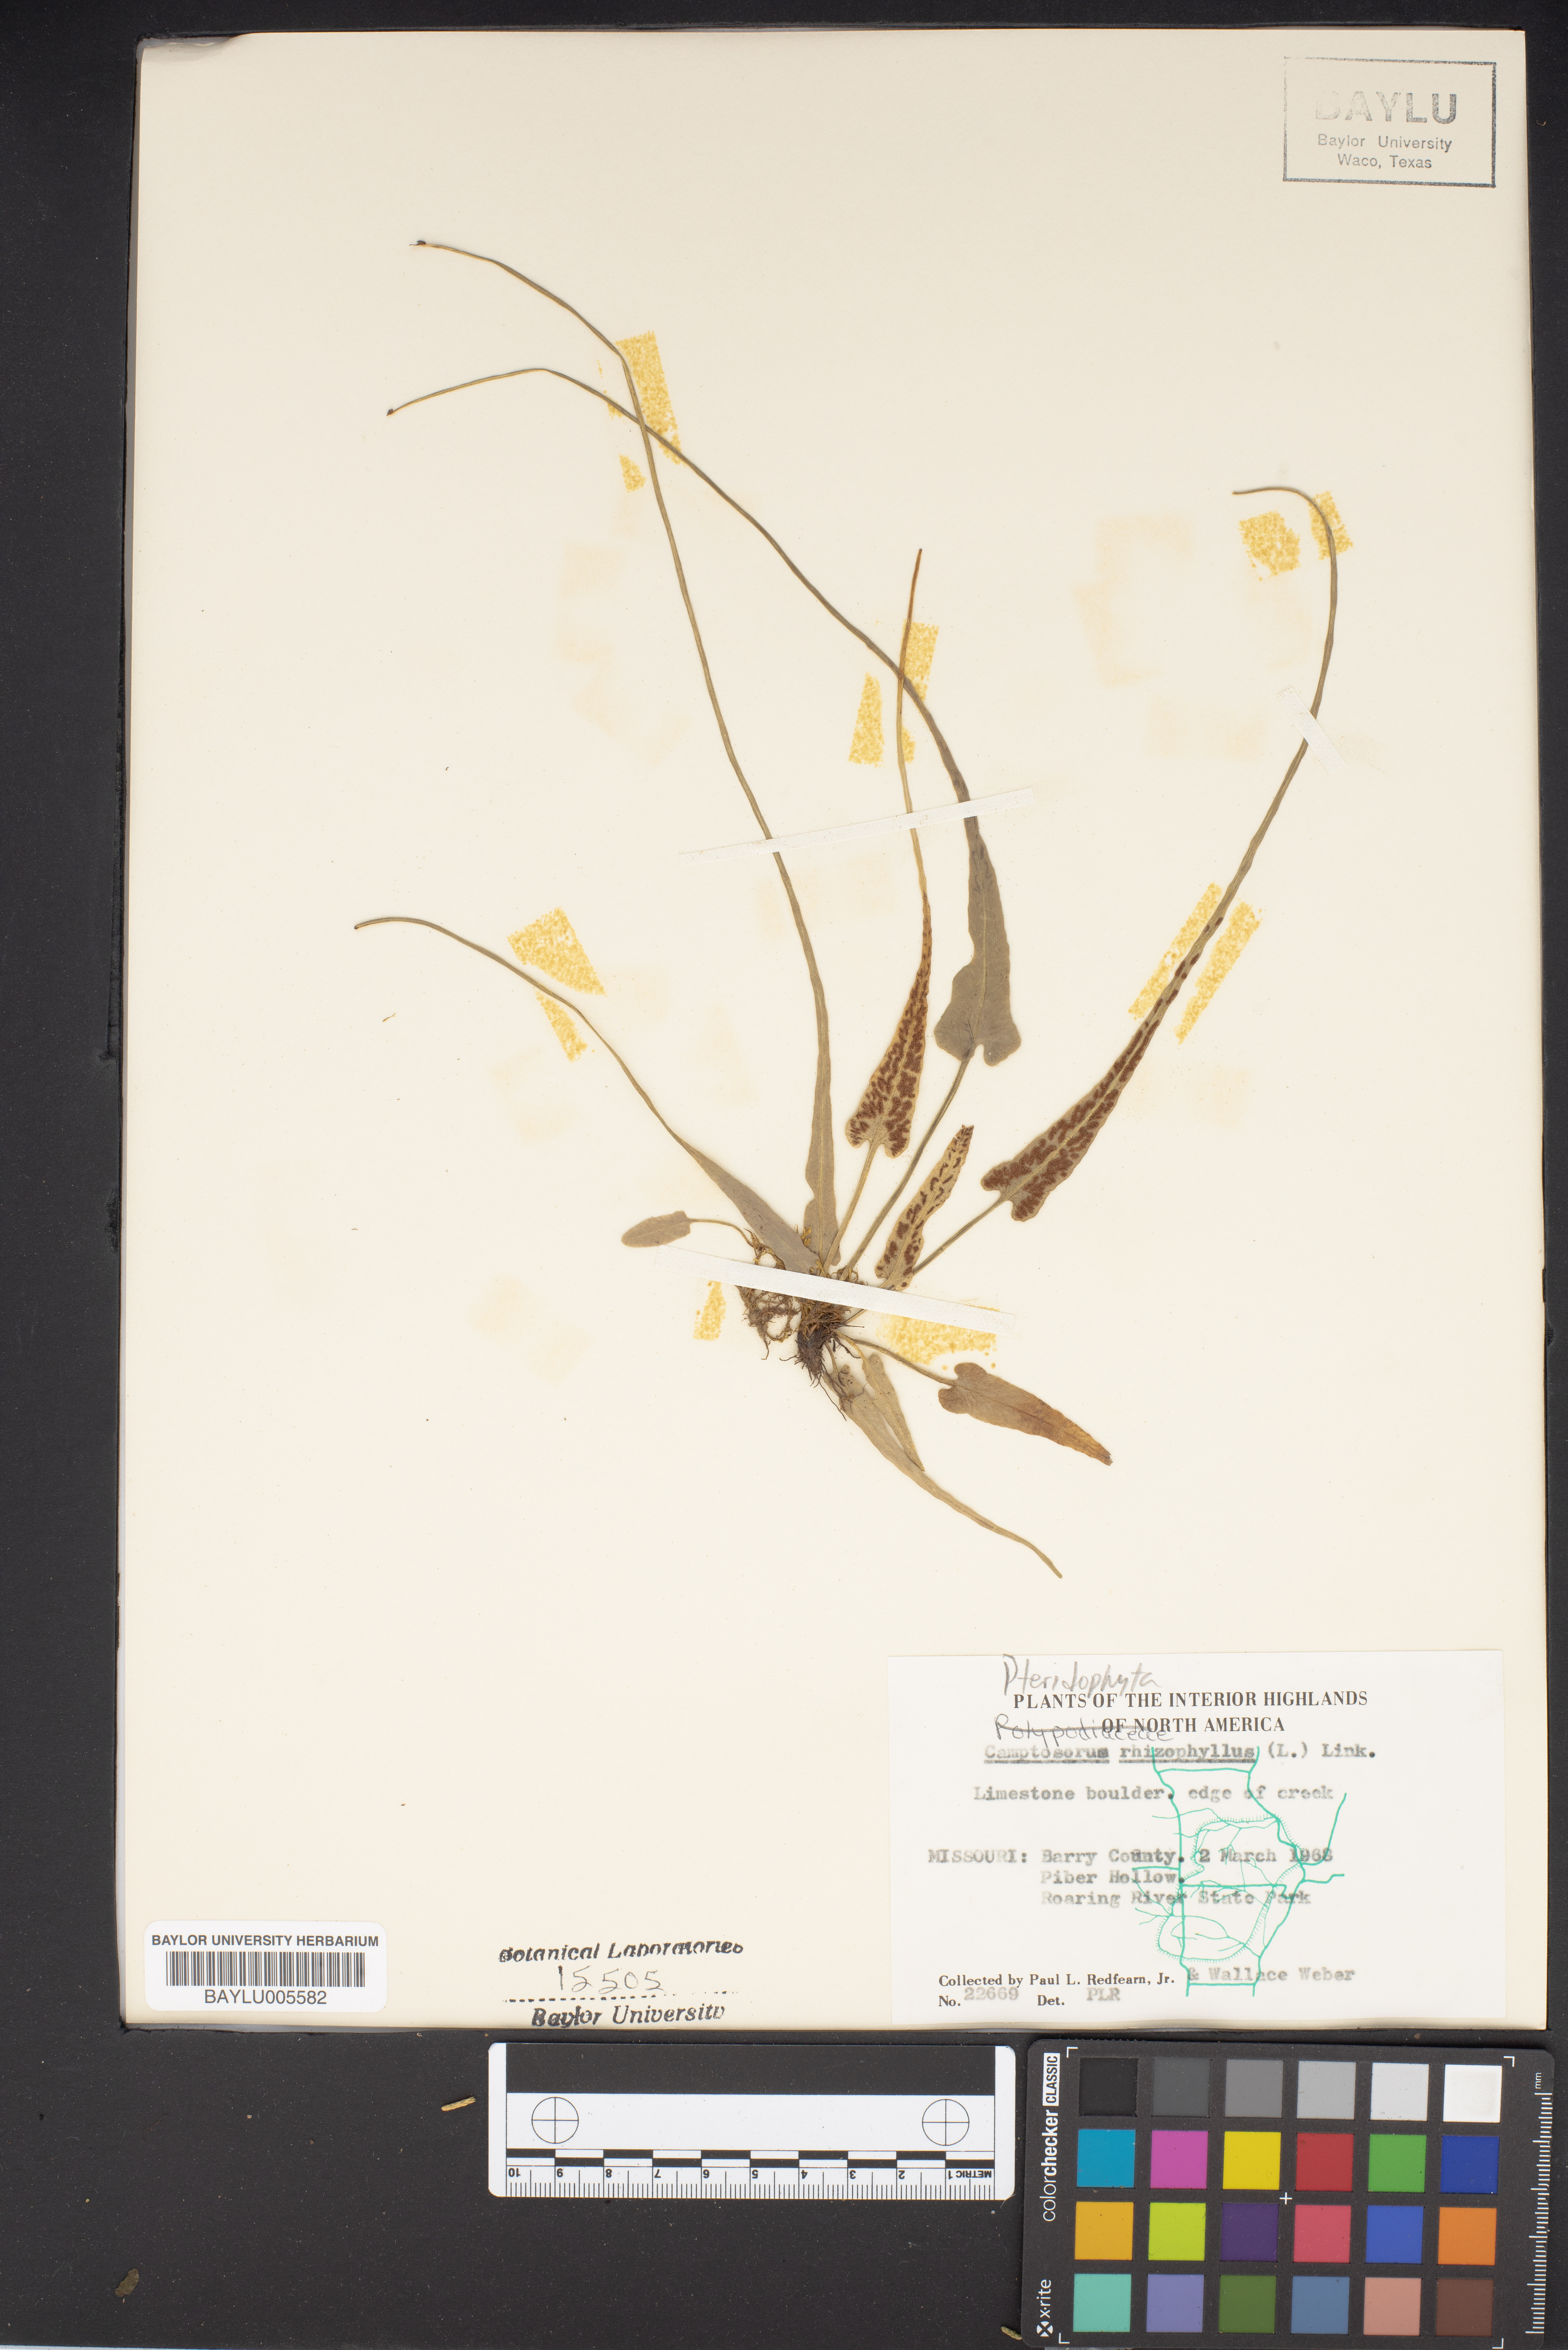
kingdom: Plantae
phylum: Tracheophyta
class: Polypodiopsida
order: Polypodiales
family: Aspleniaceae
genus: Asplenium
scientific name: Asplenium rhizophyllum
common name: Walking fern
